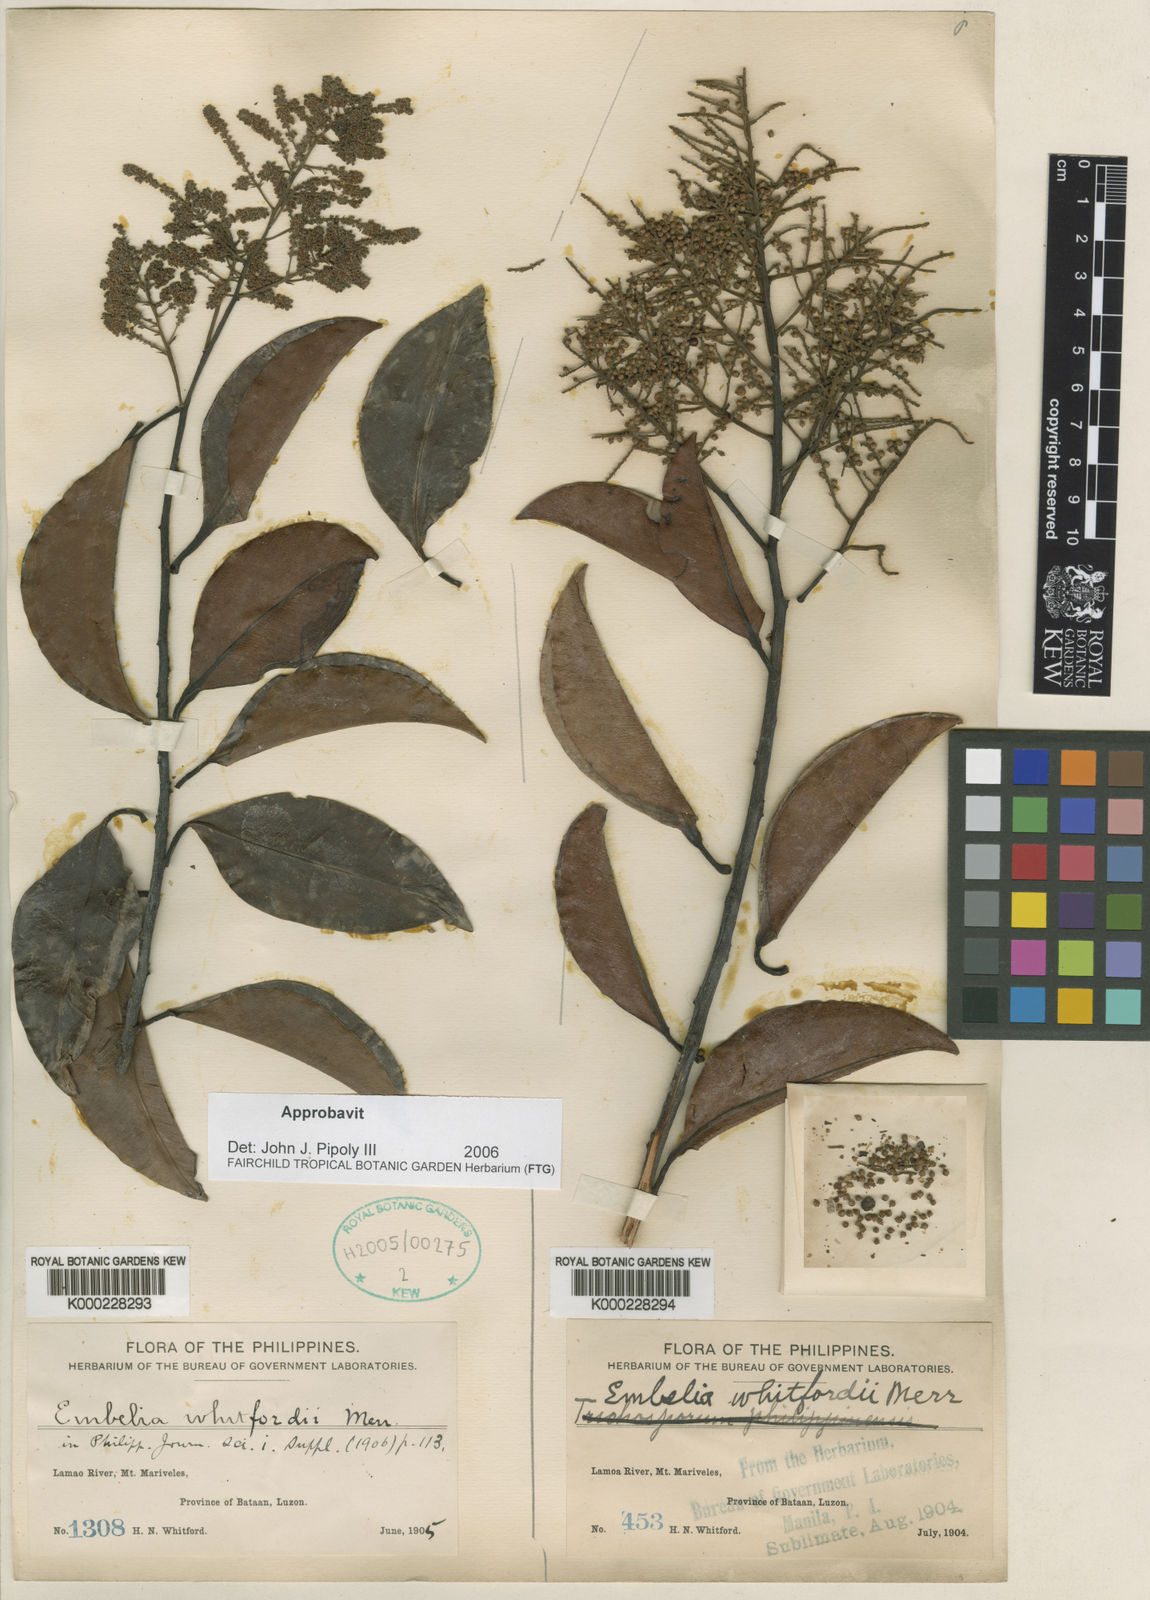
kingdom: Plantae
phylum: Tracheophyta
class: Magnoliopsida
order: Ericales
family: Primulaceae
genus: Embelia
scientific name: Embelia whitfordii
